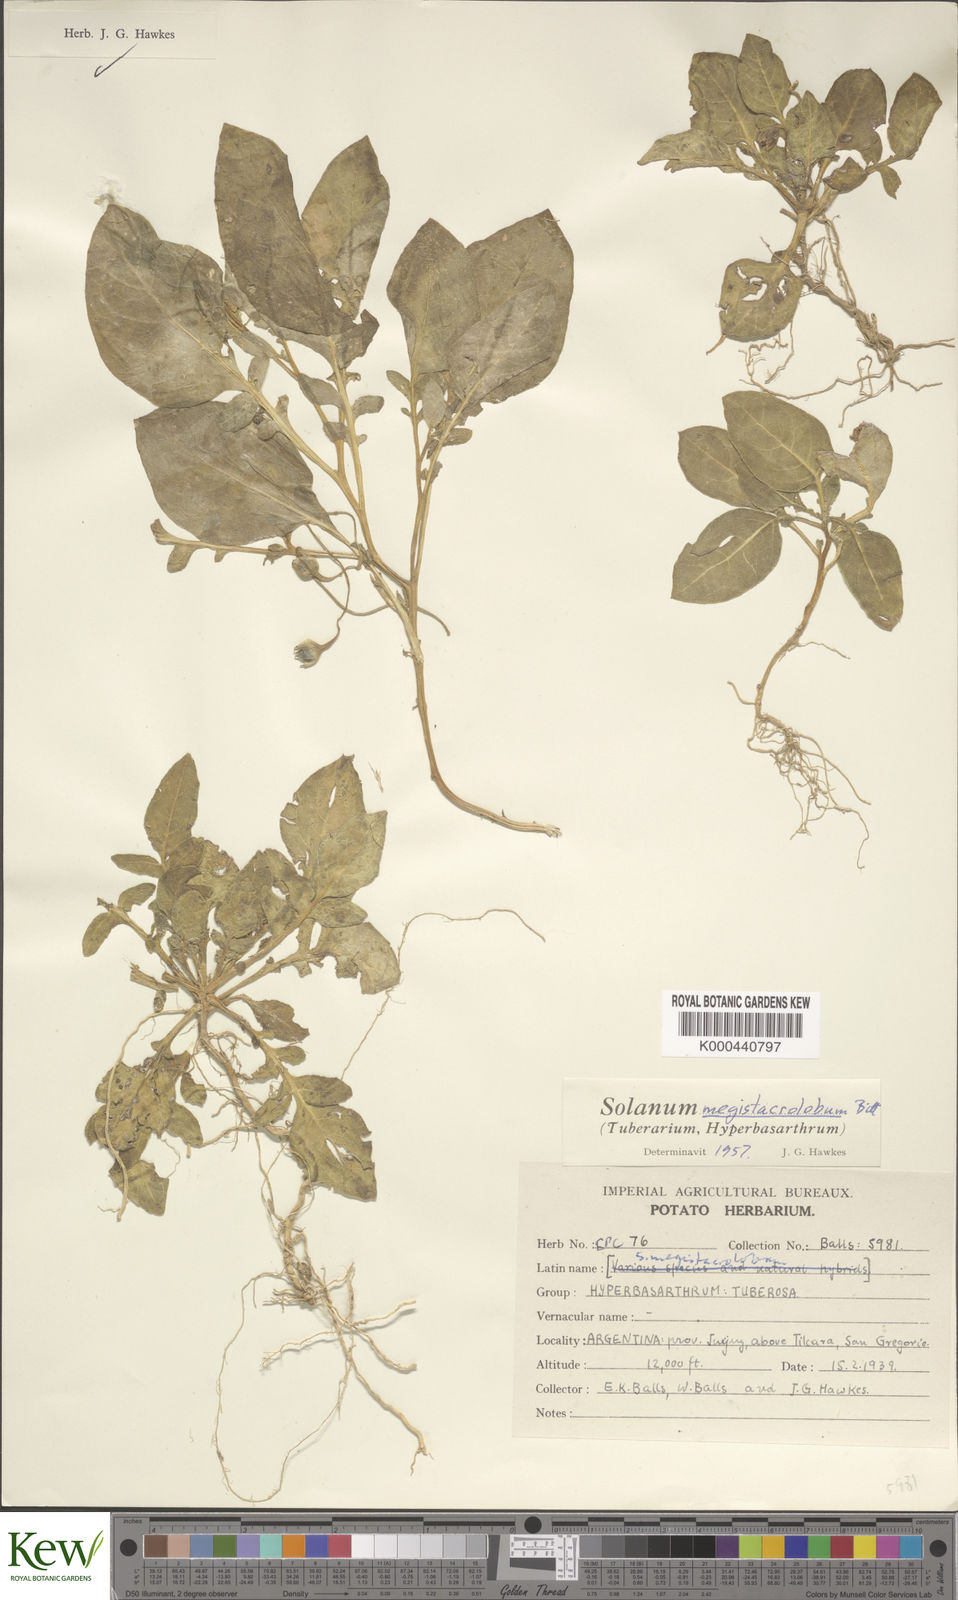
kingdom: Plantae
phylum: Tracheophyta
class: Magnoliopsida
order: Solanales
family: Solanaceae
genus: Solanum
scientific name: Solanum boliviense
